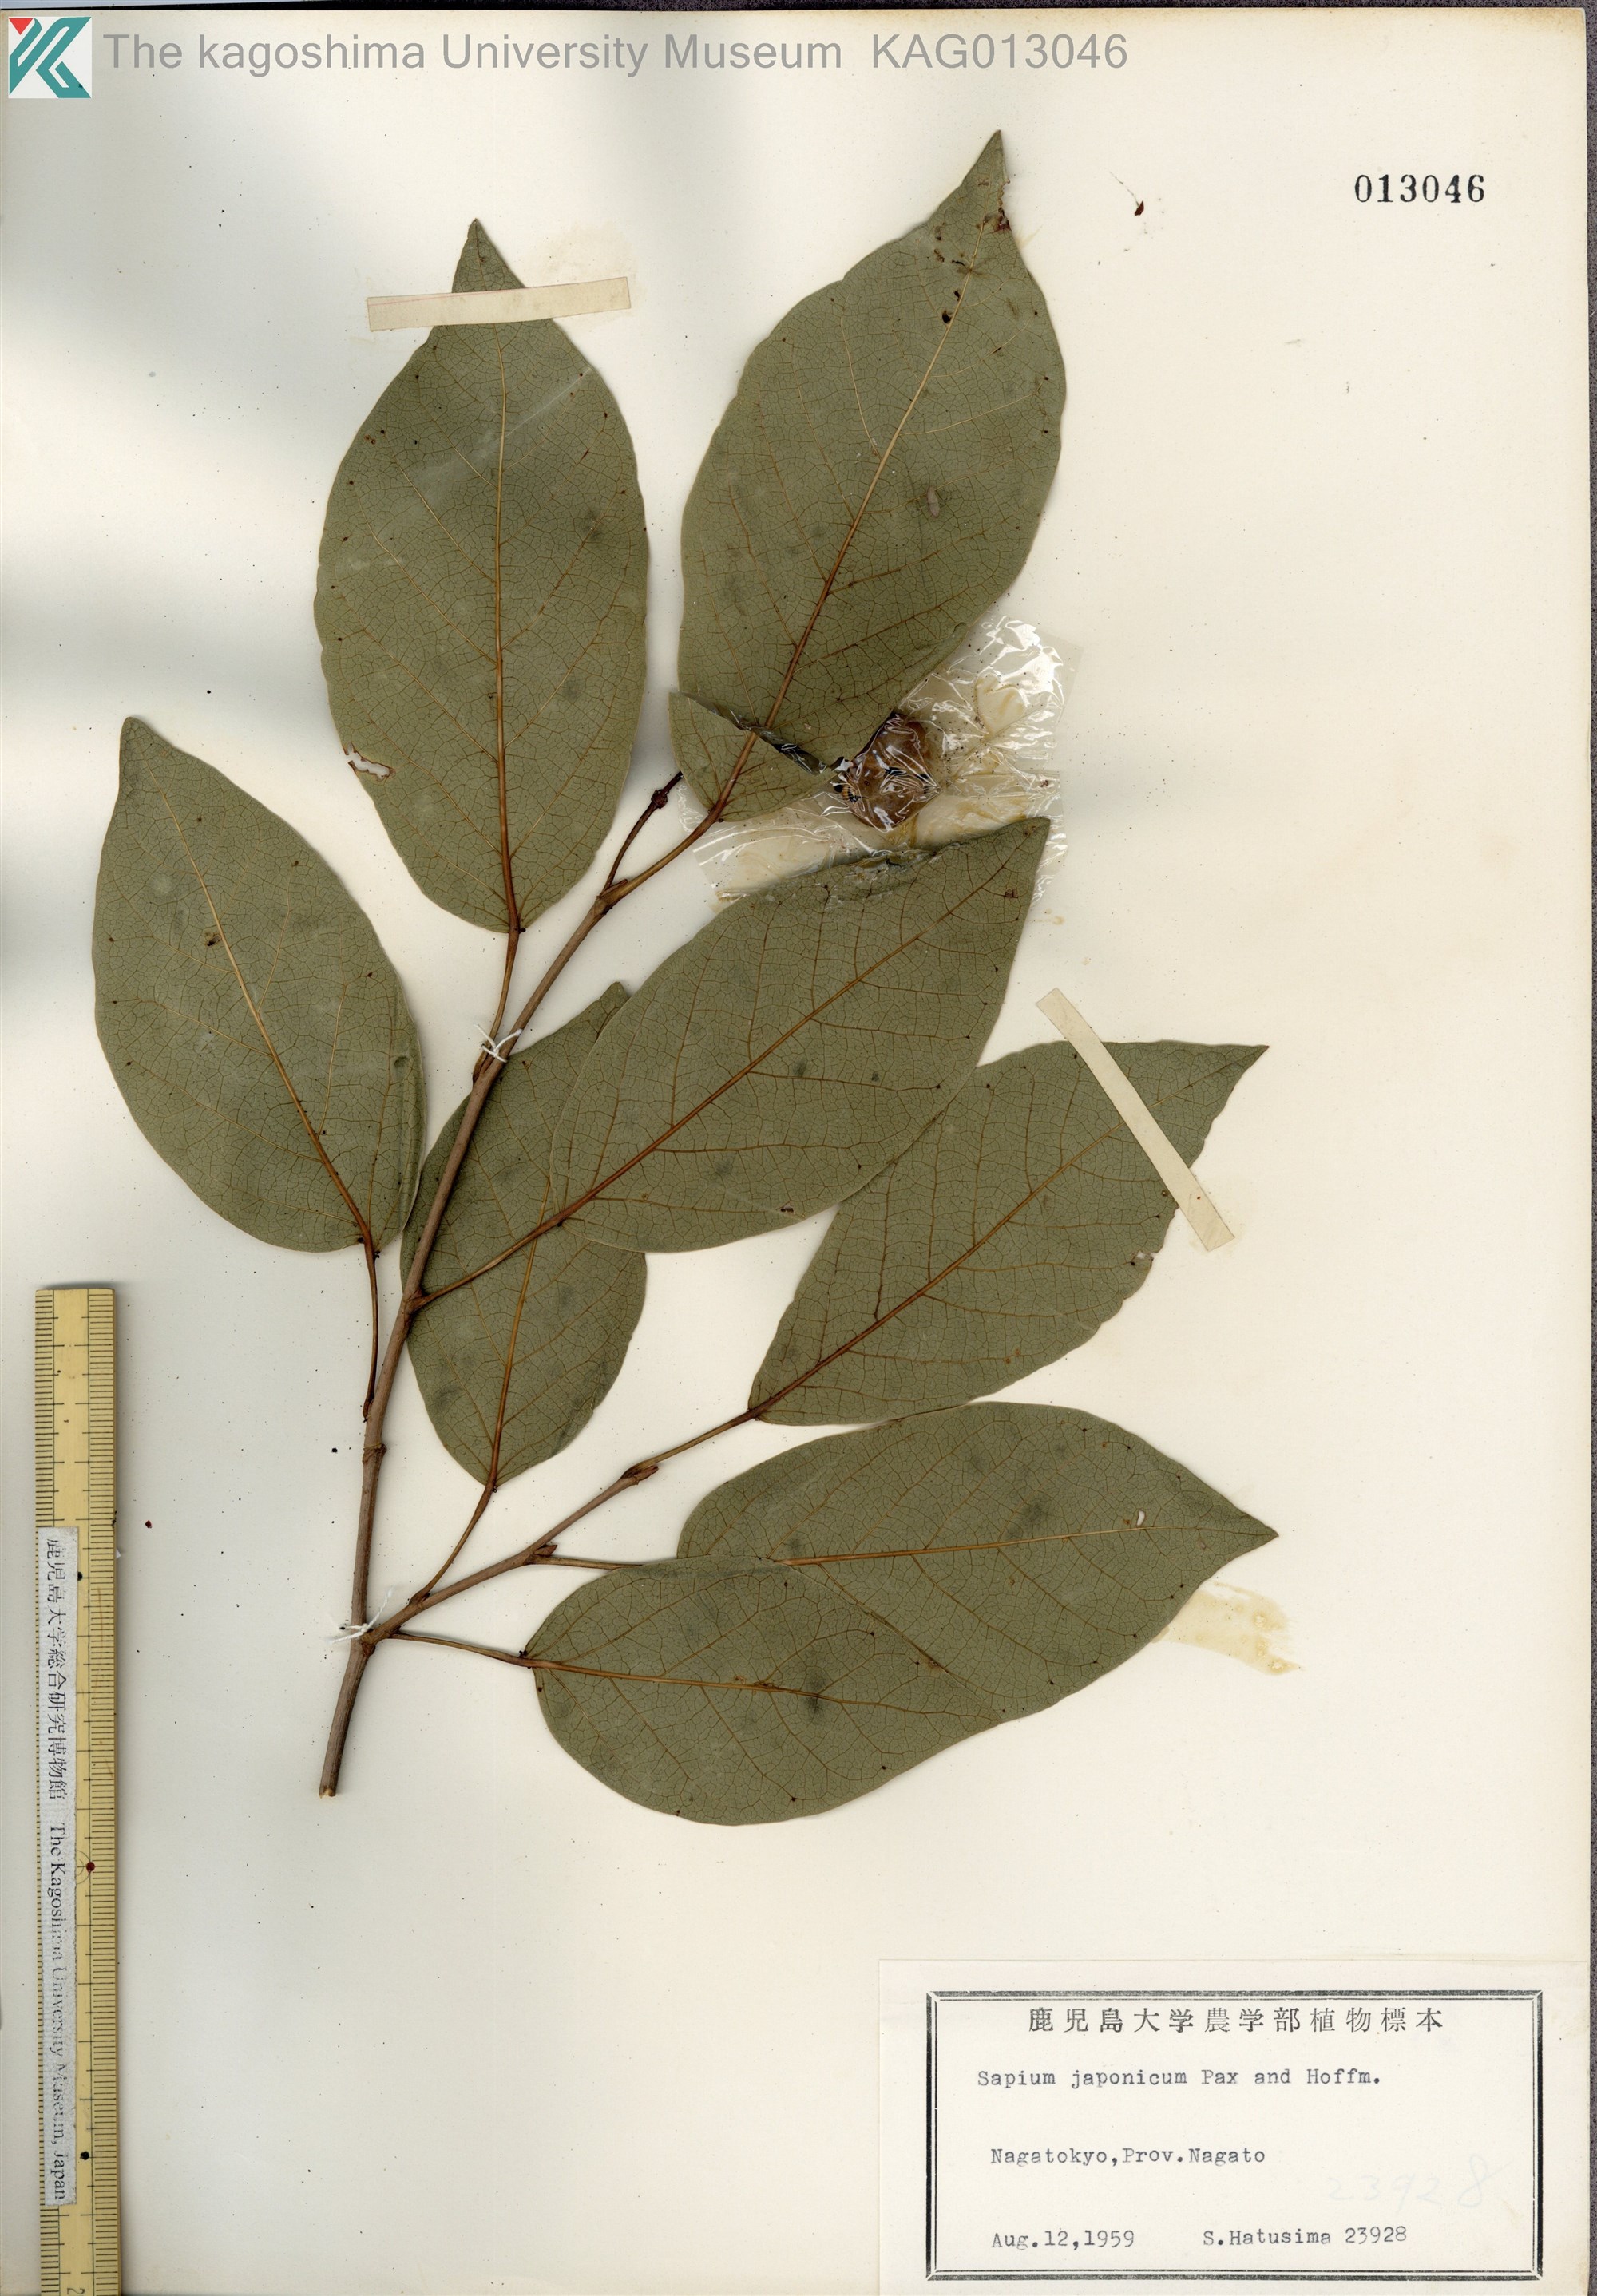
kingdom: Plantae
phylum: Tracheophyta
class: Magnoliopsida
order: Malpighiales
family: Euphorbiaceae
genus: Neoshirakia
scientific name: Neoshirakia japonica
